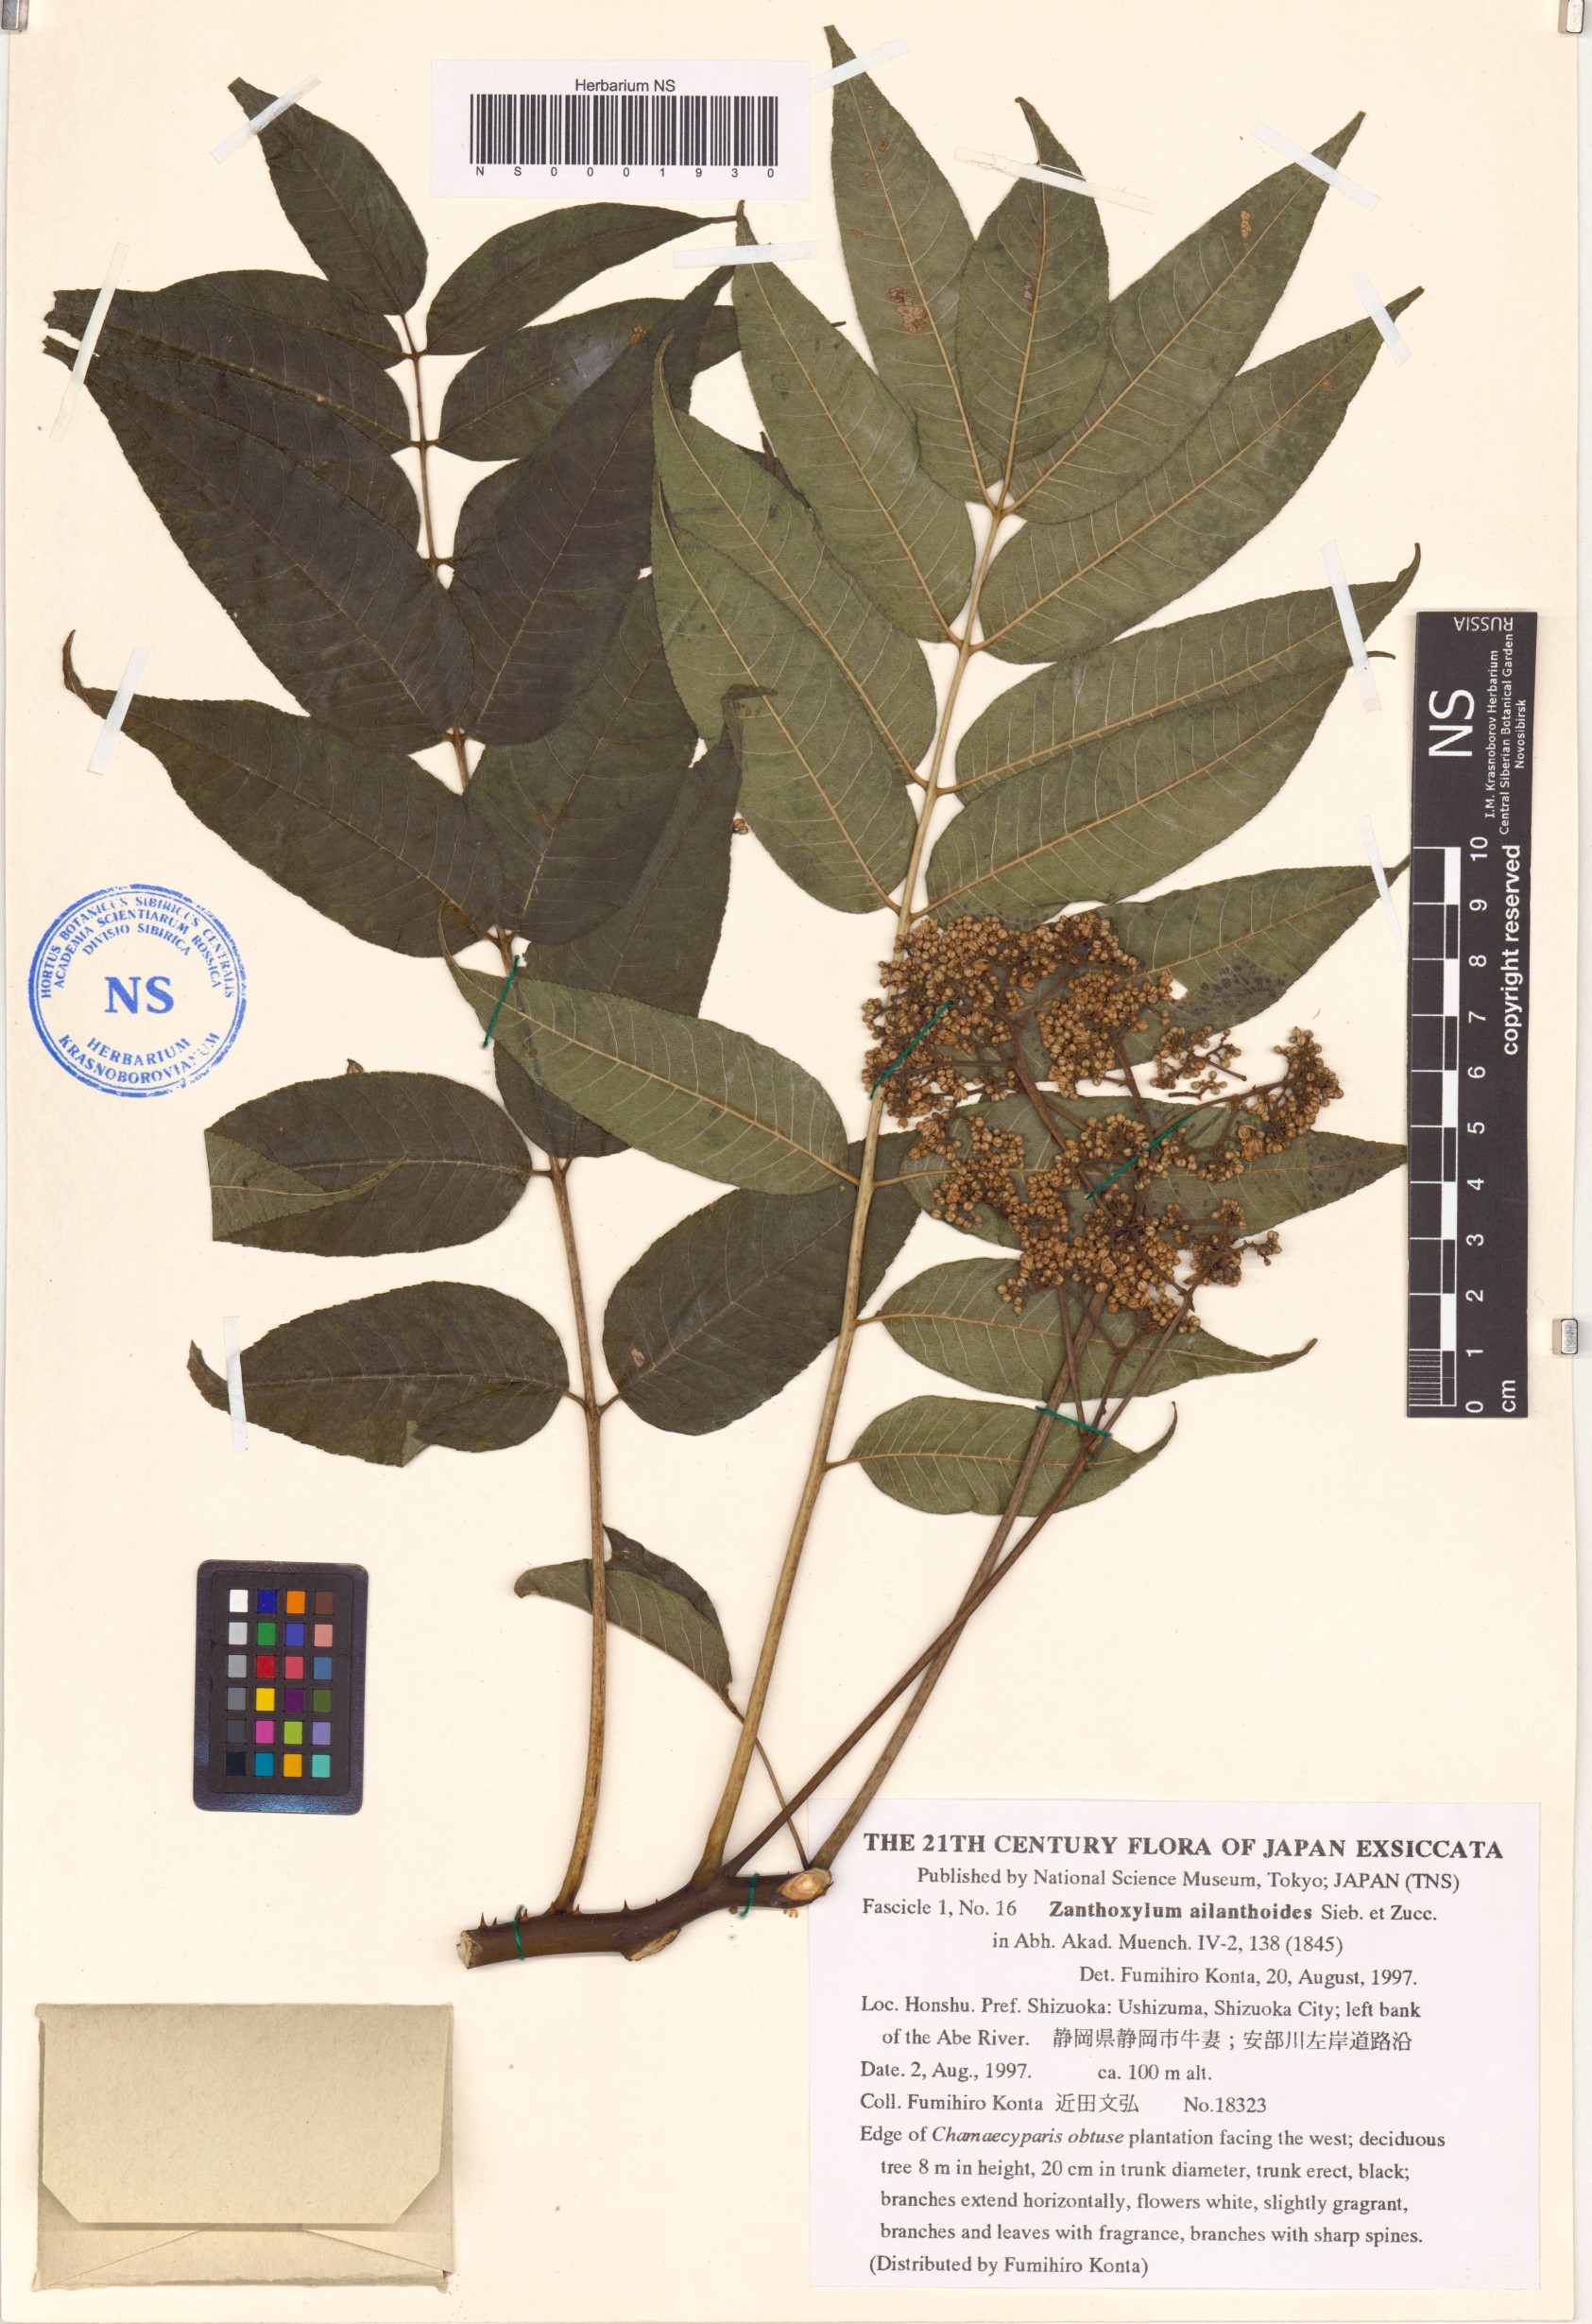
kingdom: Plantae
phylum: Tracheophyta
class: Magnoliopsida
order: Sapindales
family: Rutaceae
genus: Zanthoxylum
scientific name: Zanthoxylum ailanthoides
